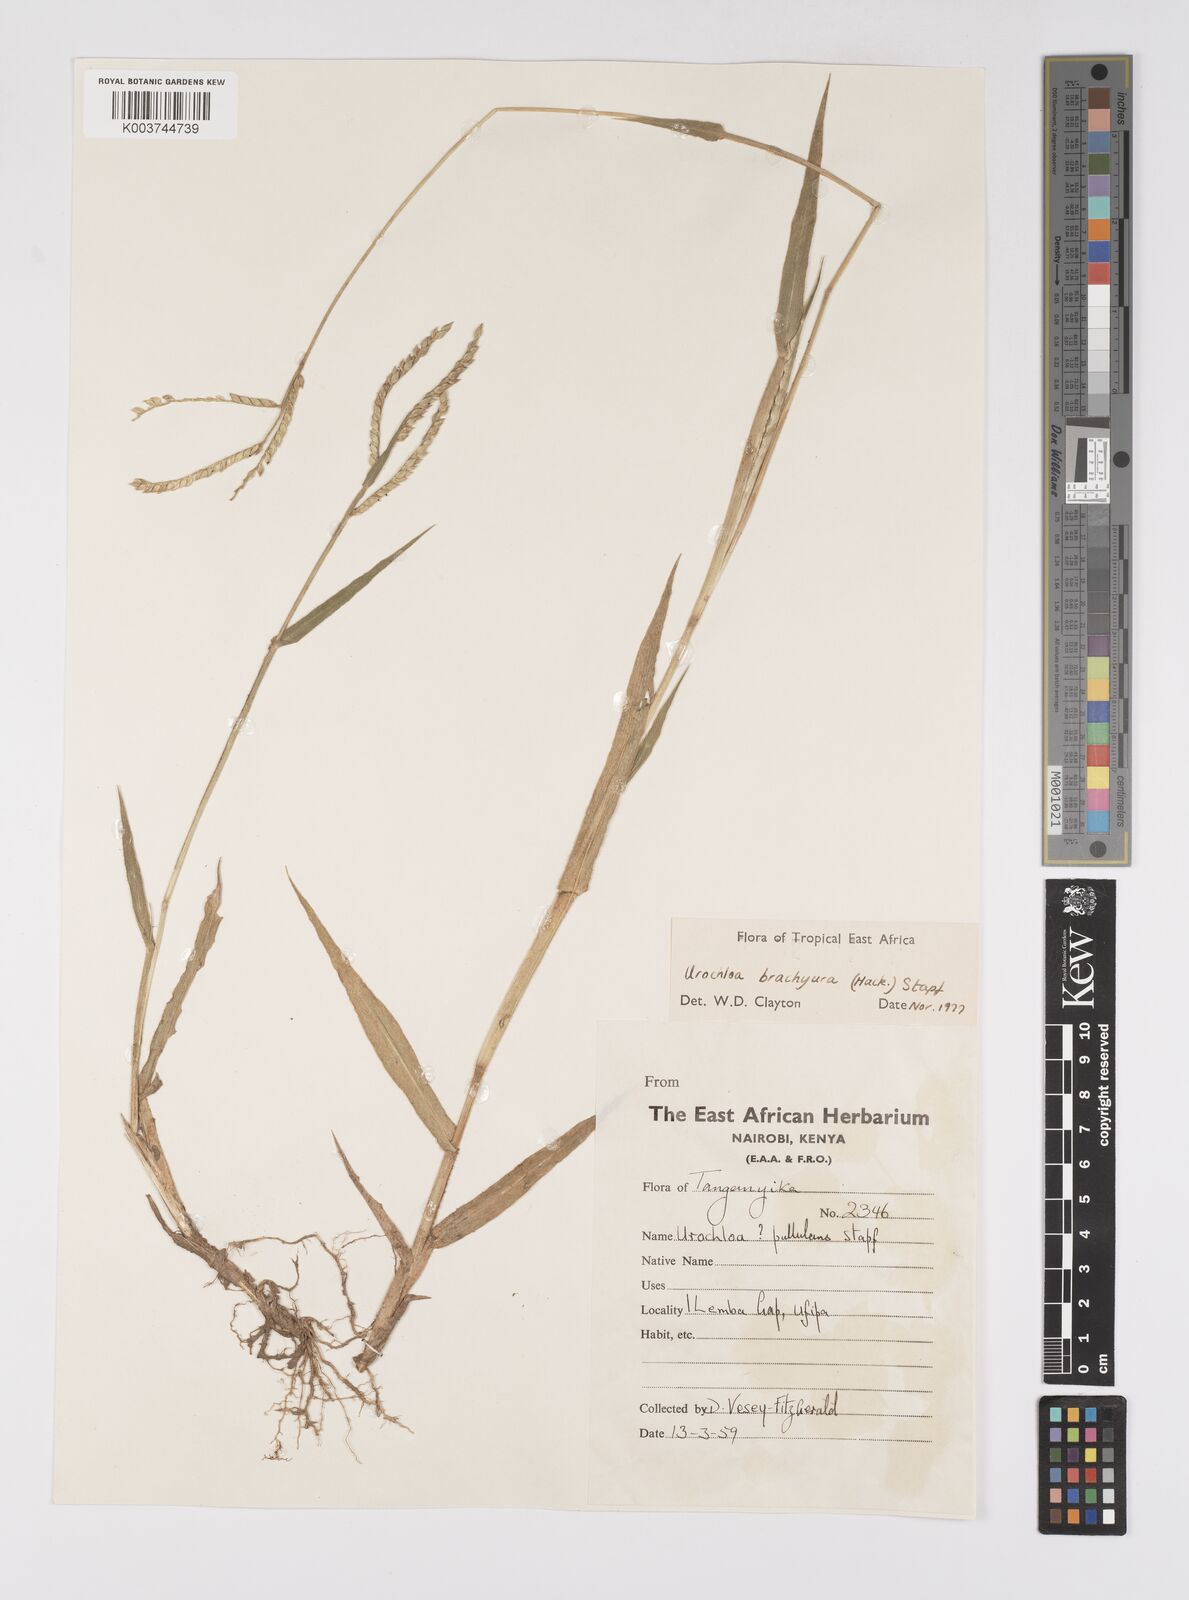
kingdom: Plantae
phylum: Tracheophyta
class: Liliopsida
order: Poales
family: Poaceae
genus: Urochloa
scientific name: Urochloa brachyura
